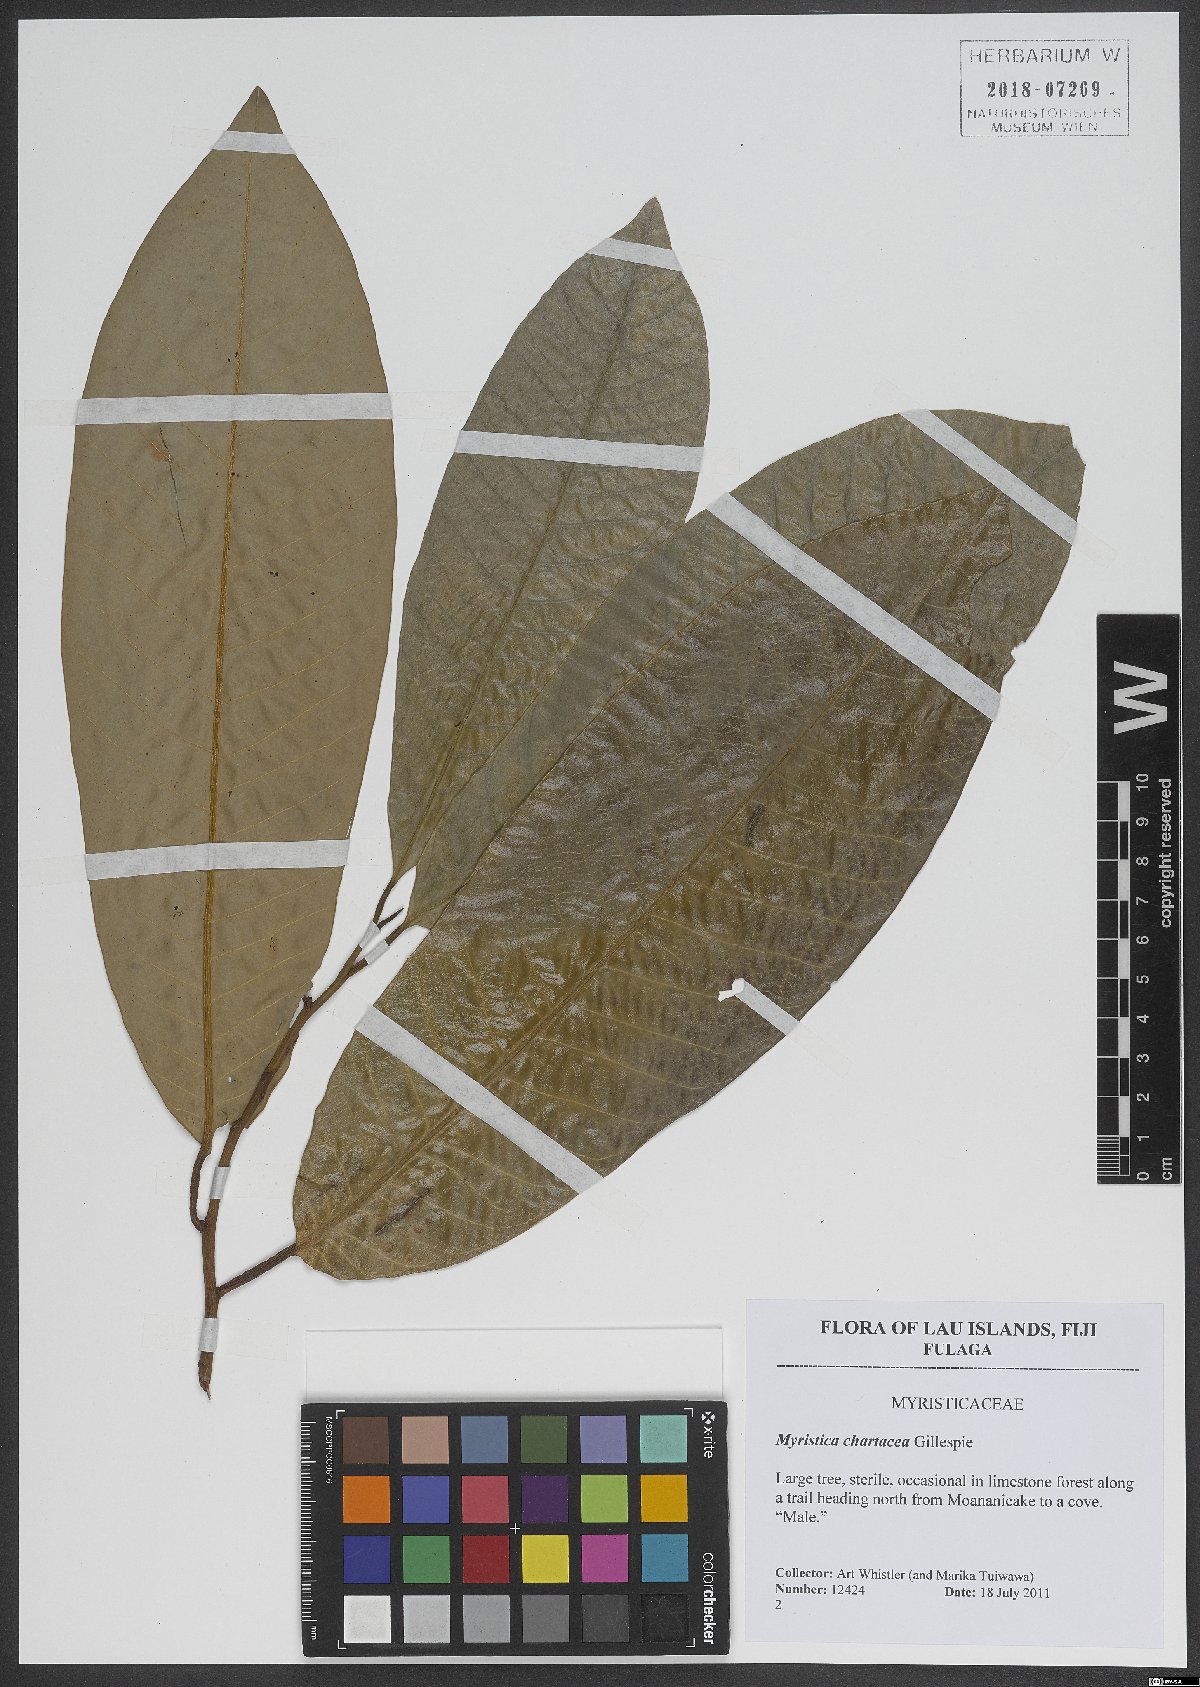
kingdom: Plantae
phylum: Tracheophyta
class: Magnoliopsida
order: Magnoliales
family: Myristicaceae
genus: Myristica
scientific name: Myristica chartacea
